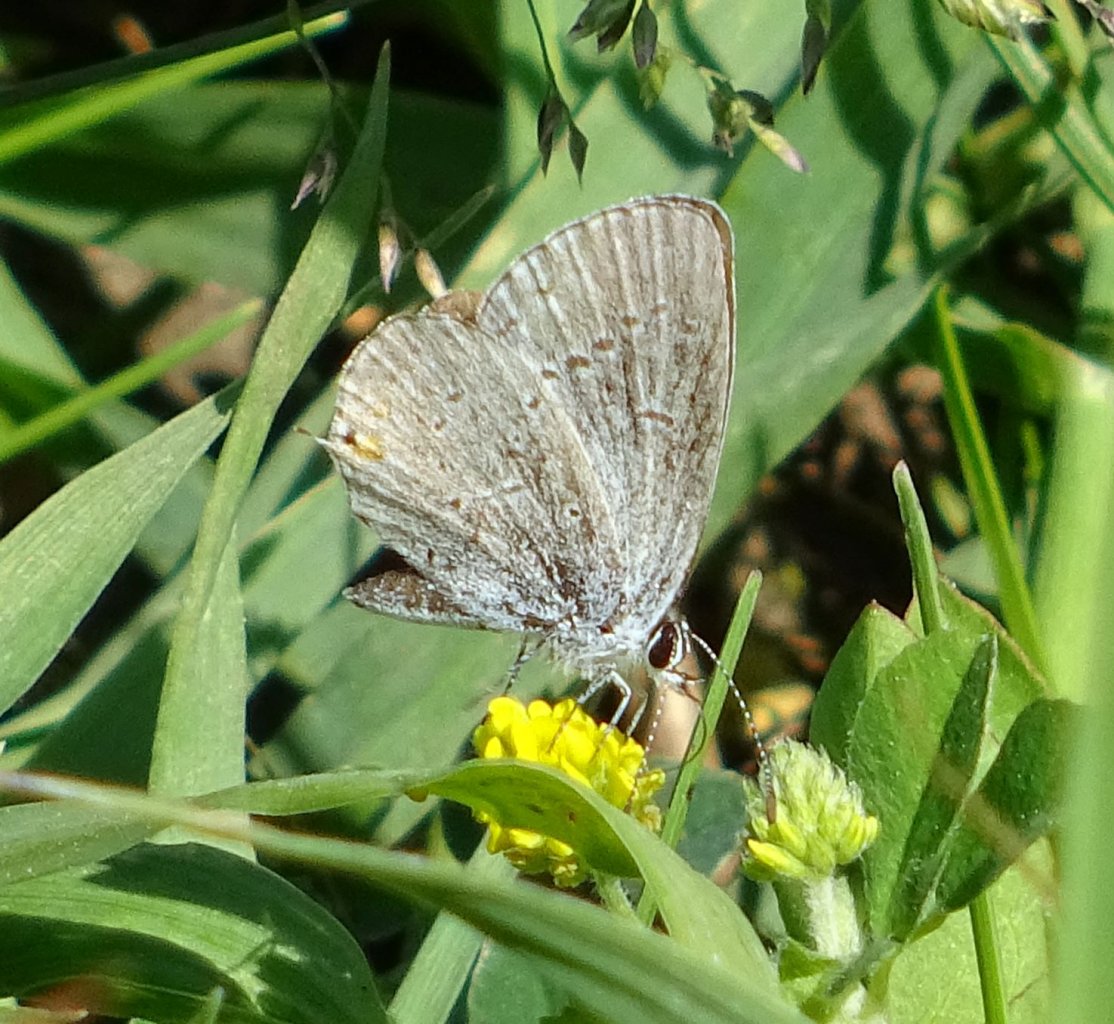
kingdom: Animalia
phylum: Arthropoda
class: Insecta
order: Lepidoptera
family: Lycaenidae
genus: Elkalyce
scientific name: Elkalyce comyntas
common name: Eastern Tailed-Blue
